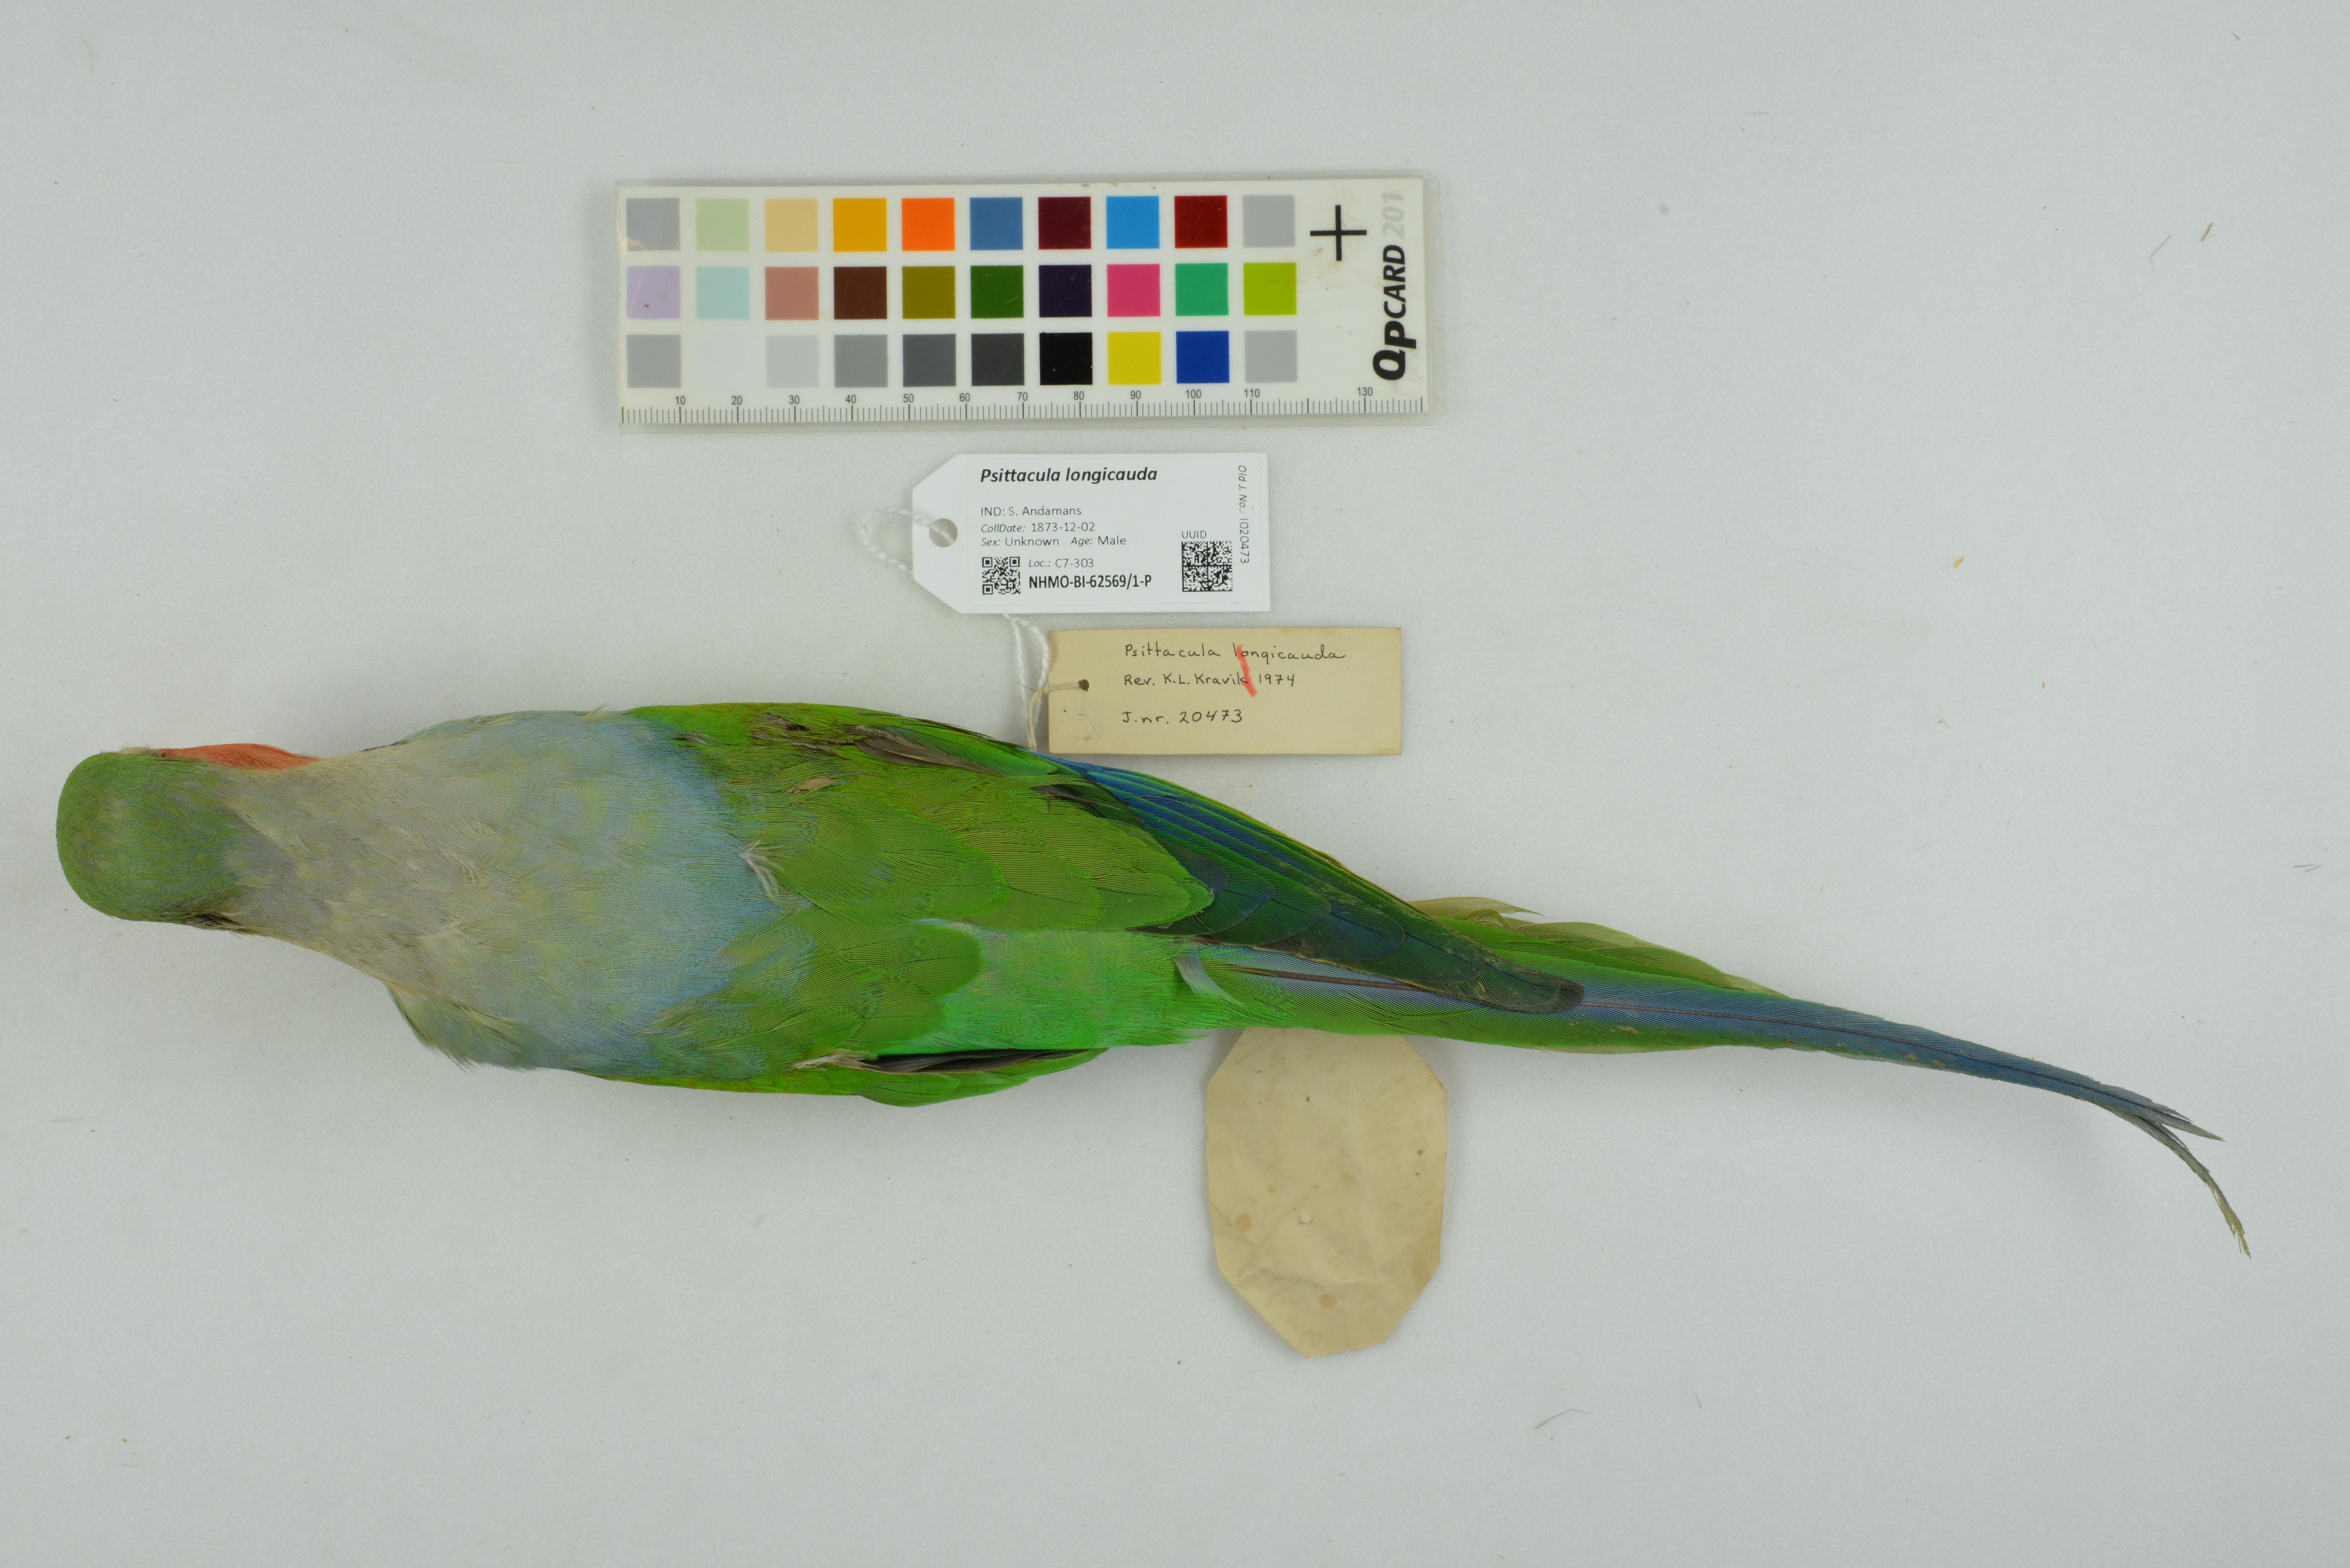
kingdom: Animalia
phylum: Chordata
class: Aves
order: Psittaciformes
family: Psittacidae
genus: Psittacula
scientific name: Psittacula longicauda
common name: Long-tailed parakeet
